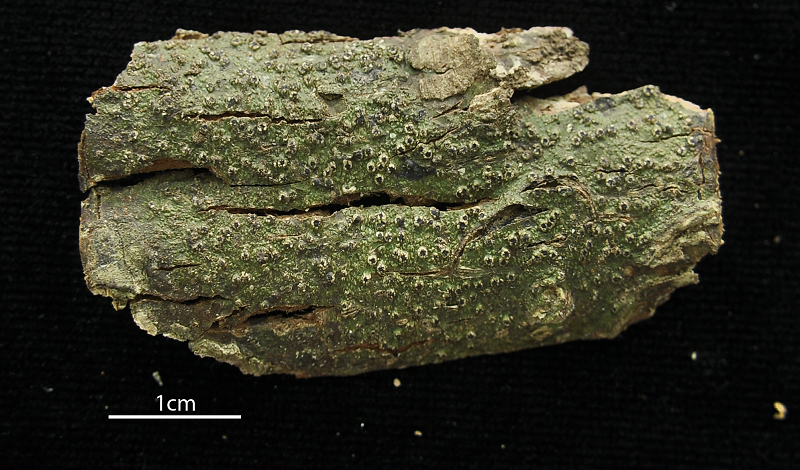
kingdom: Fungi
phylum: Ascomycota
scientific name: Ascomycota
